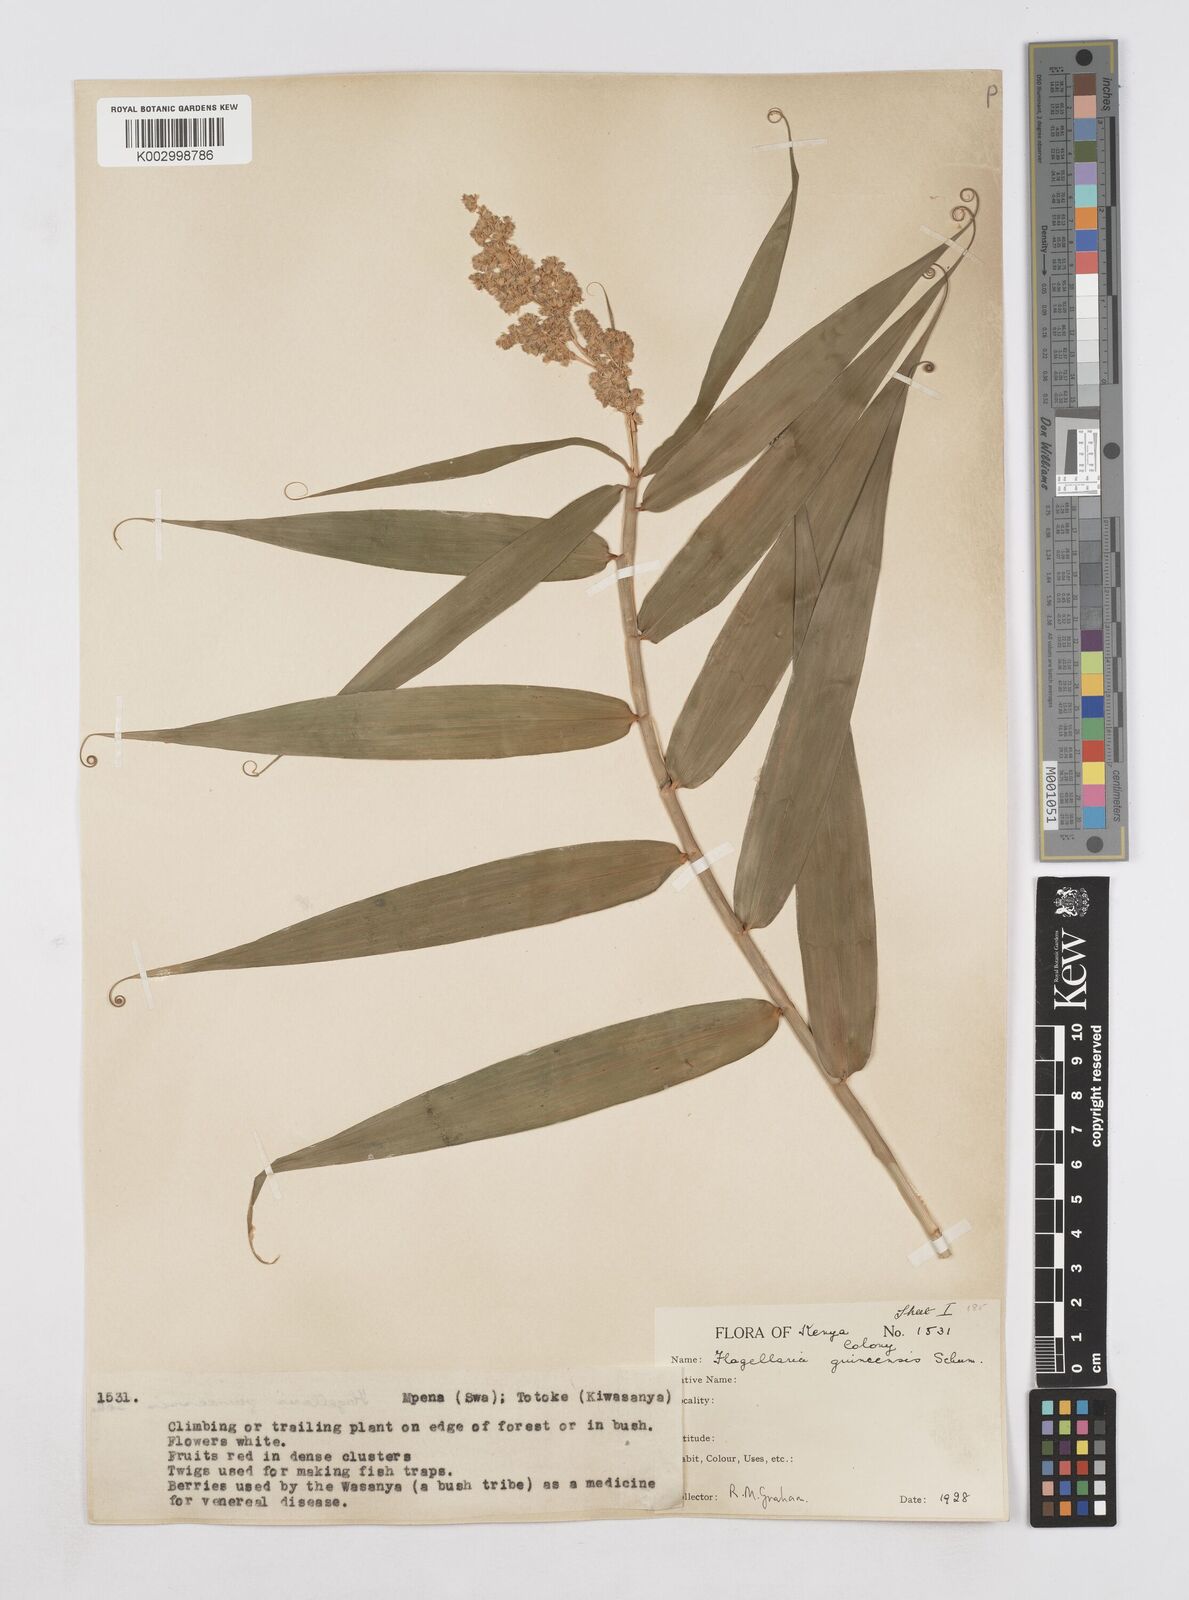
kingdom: Plantae
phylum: Tracheophyta
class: Liliopsida
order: Poales
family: Flagellariaceae
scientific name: Flagellariaceae
